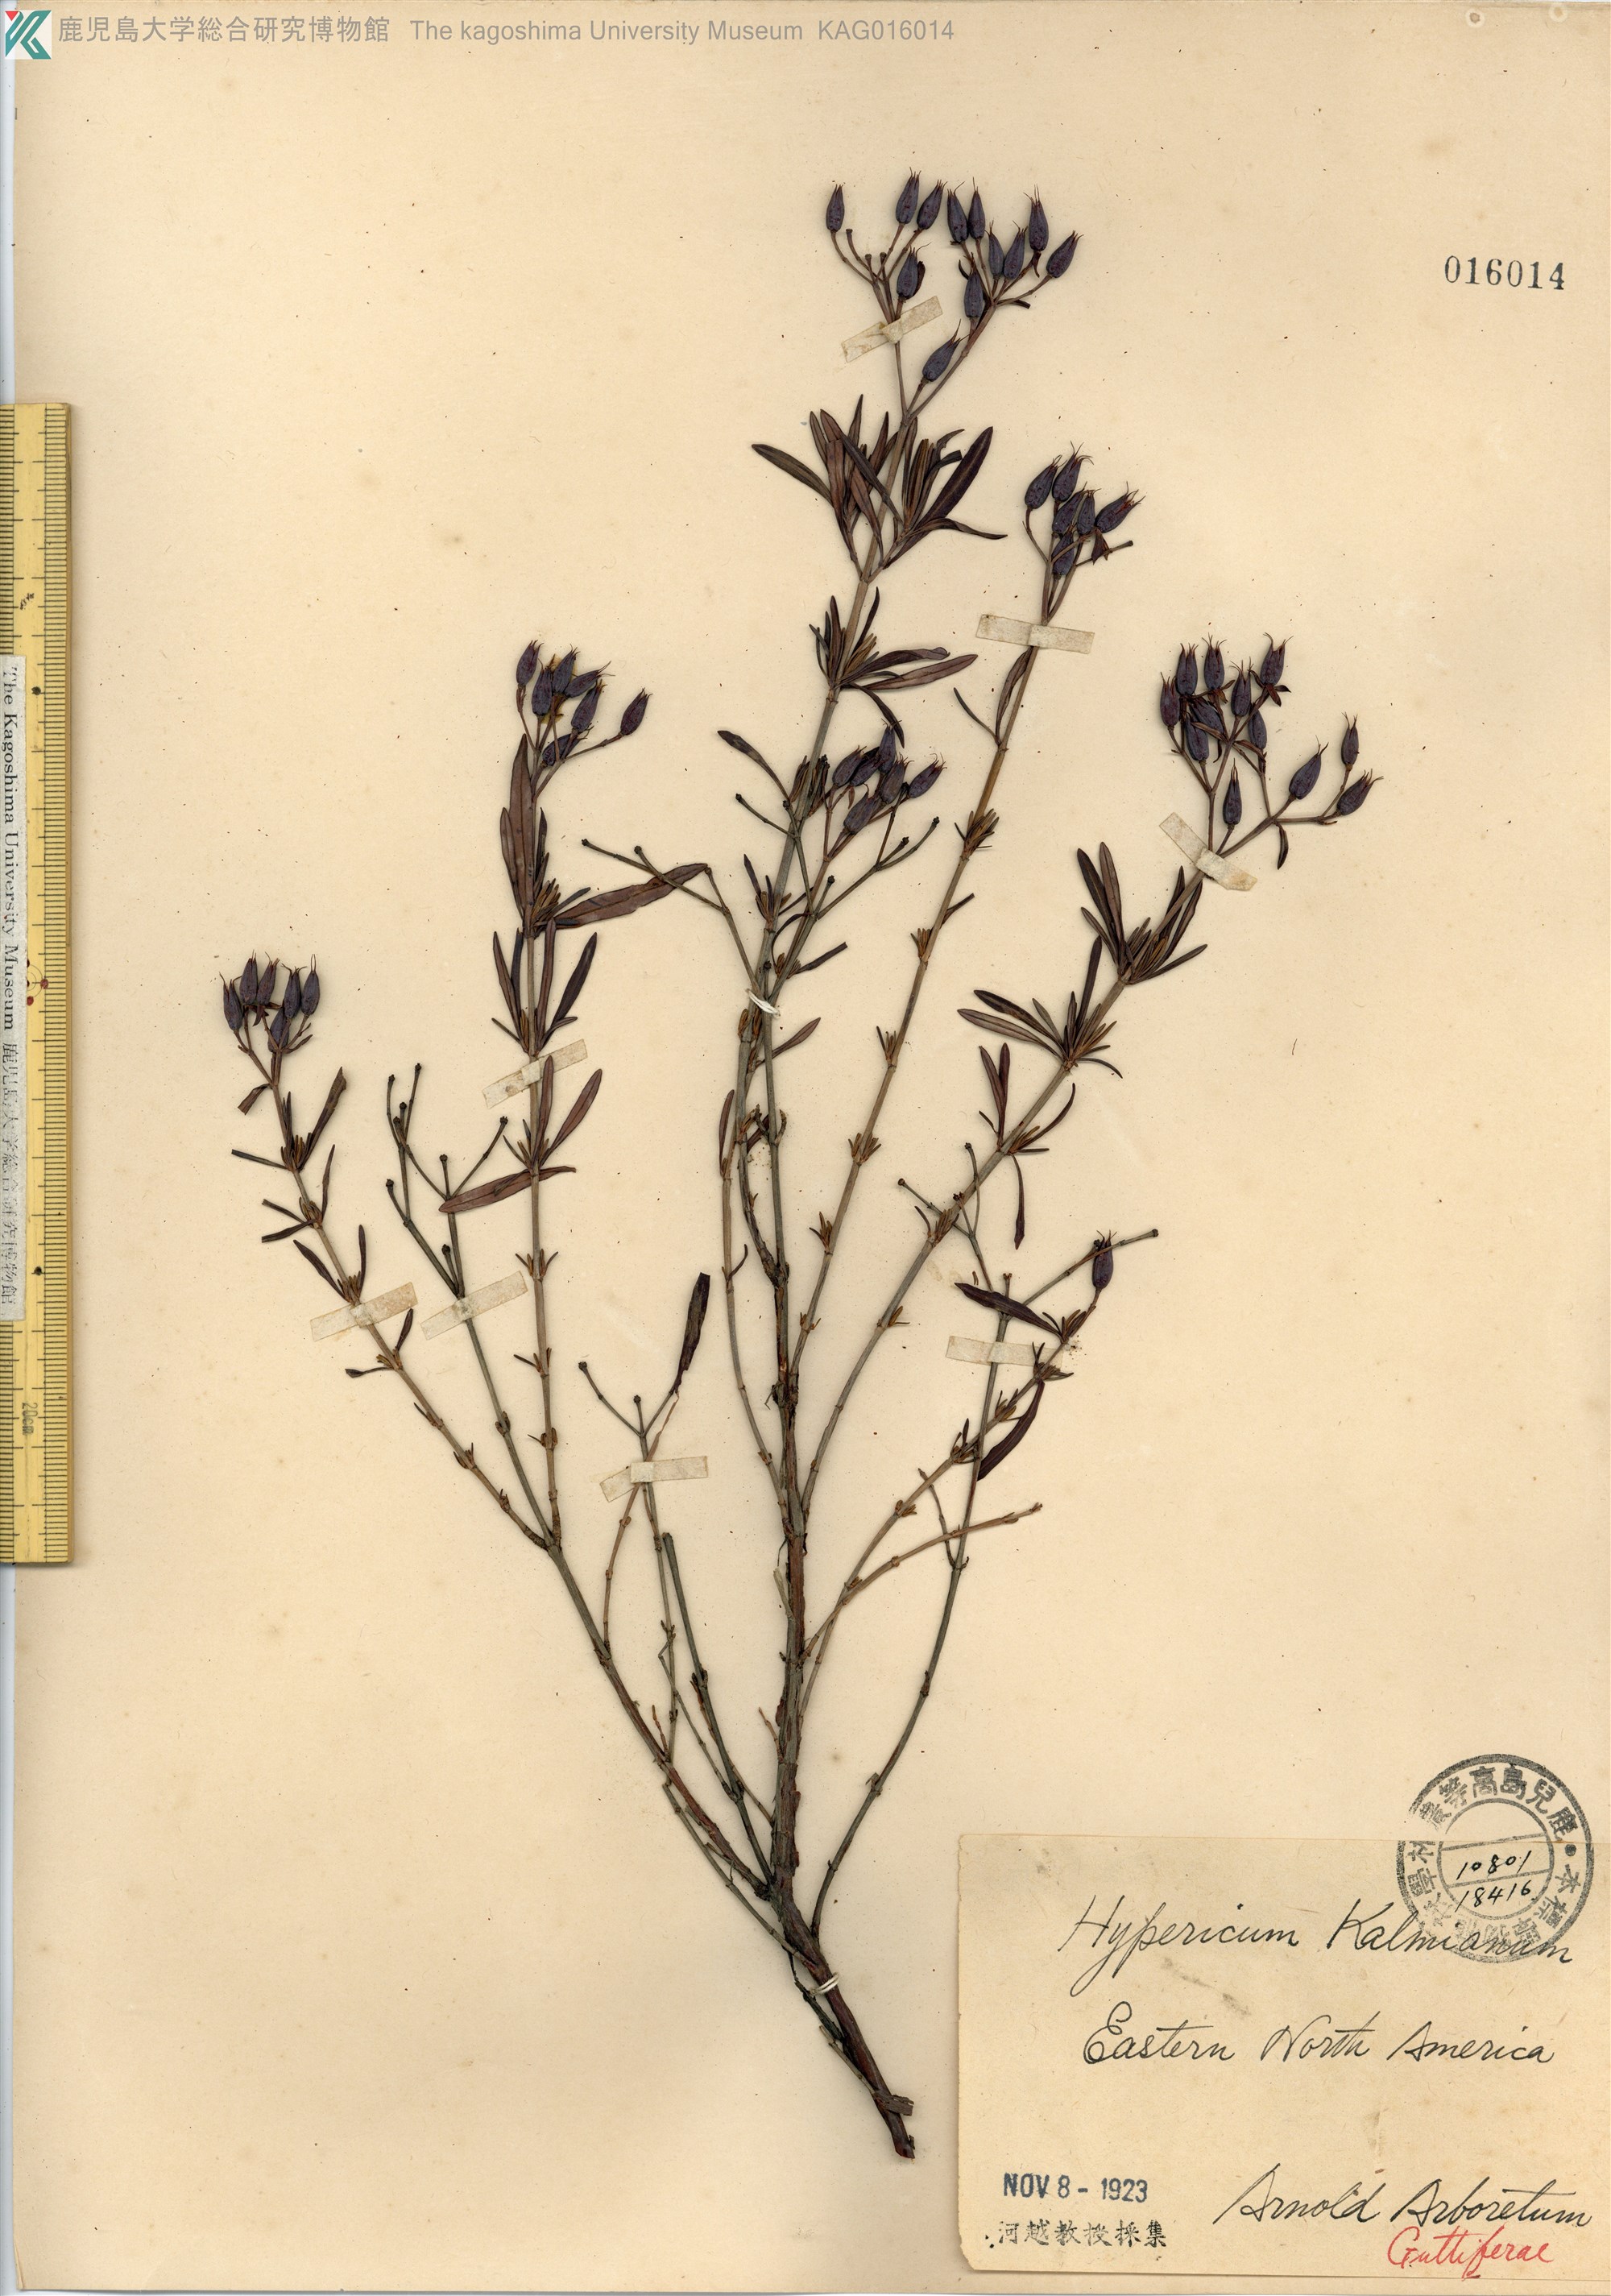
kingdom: Plantae
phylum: Tracheophyta
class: Magnoliopsida
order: Malpighiales
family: Hypericaceae
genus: Hypericum
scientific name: Hypericum kalmianum
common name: Kalm's st. john's-wort
